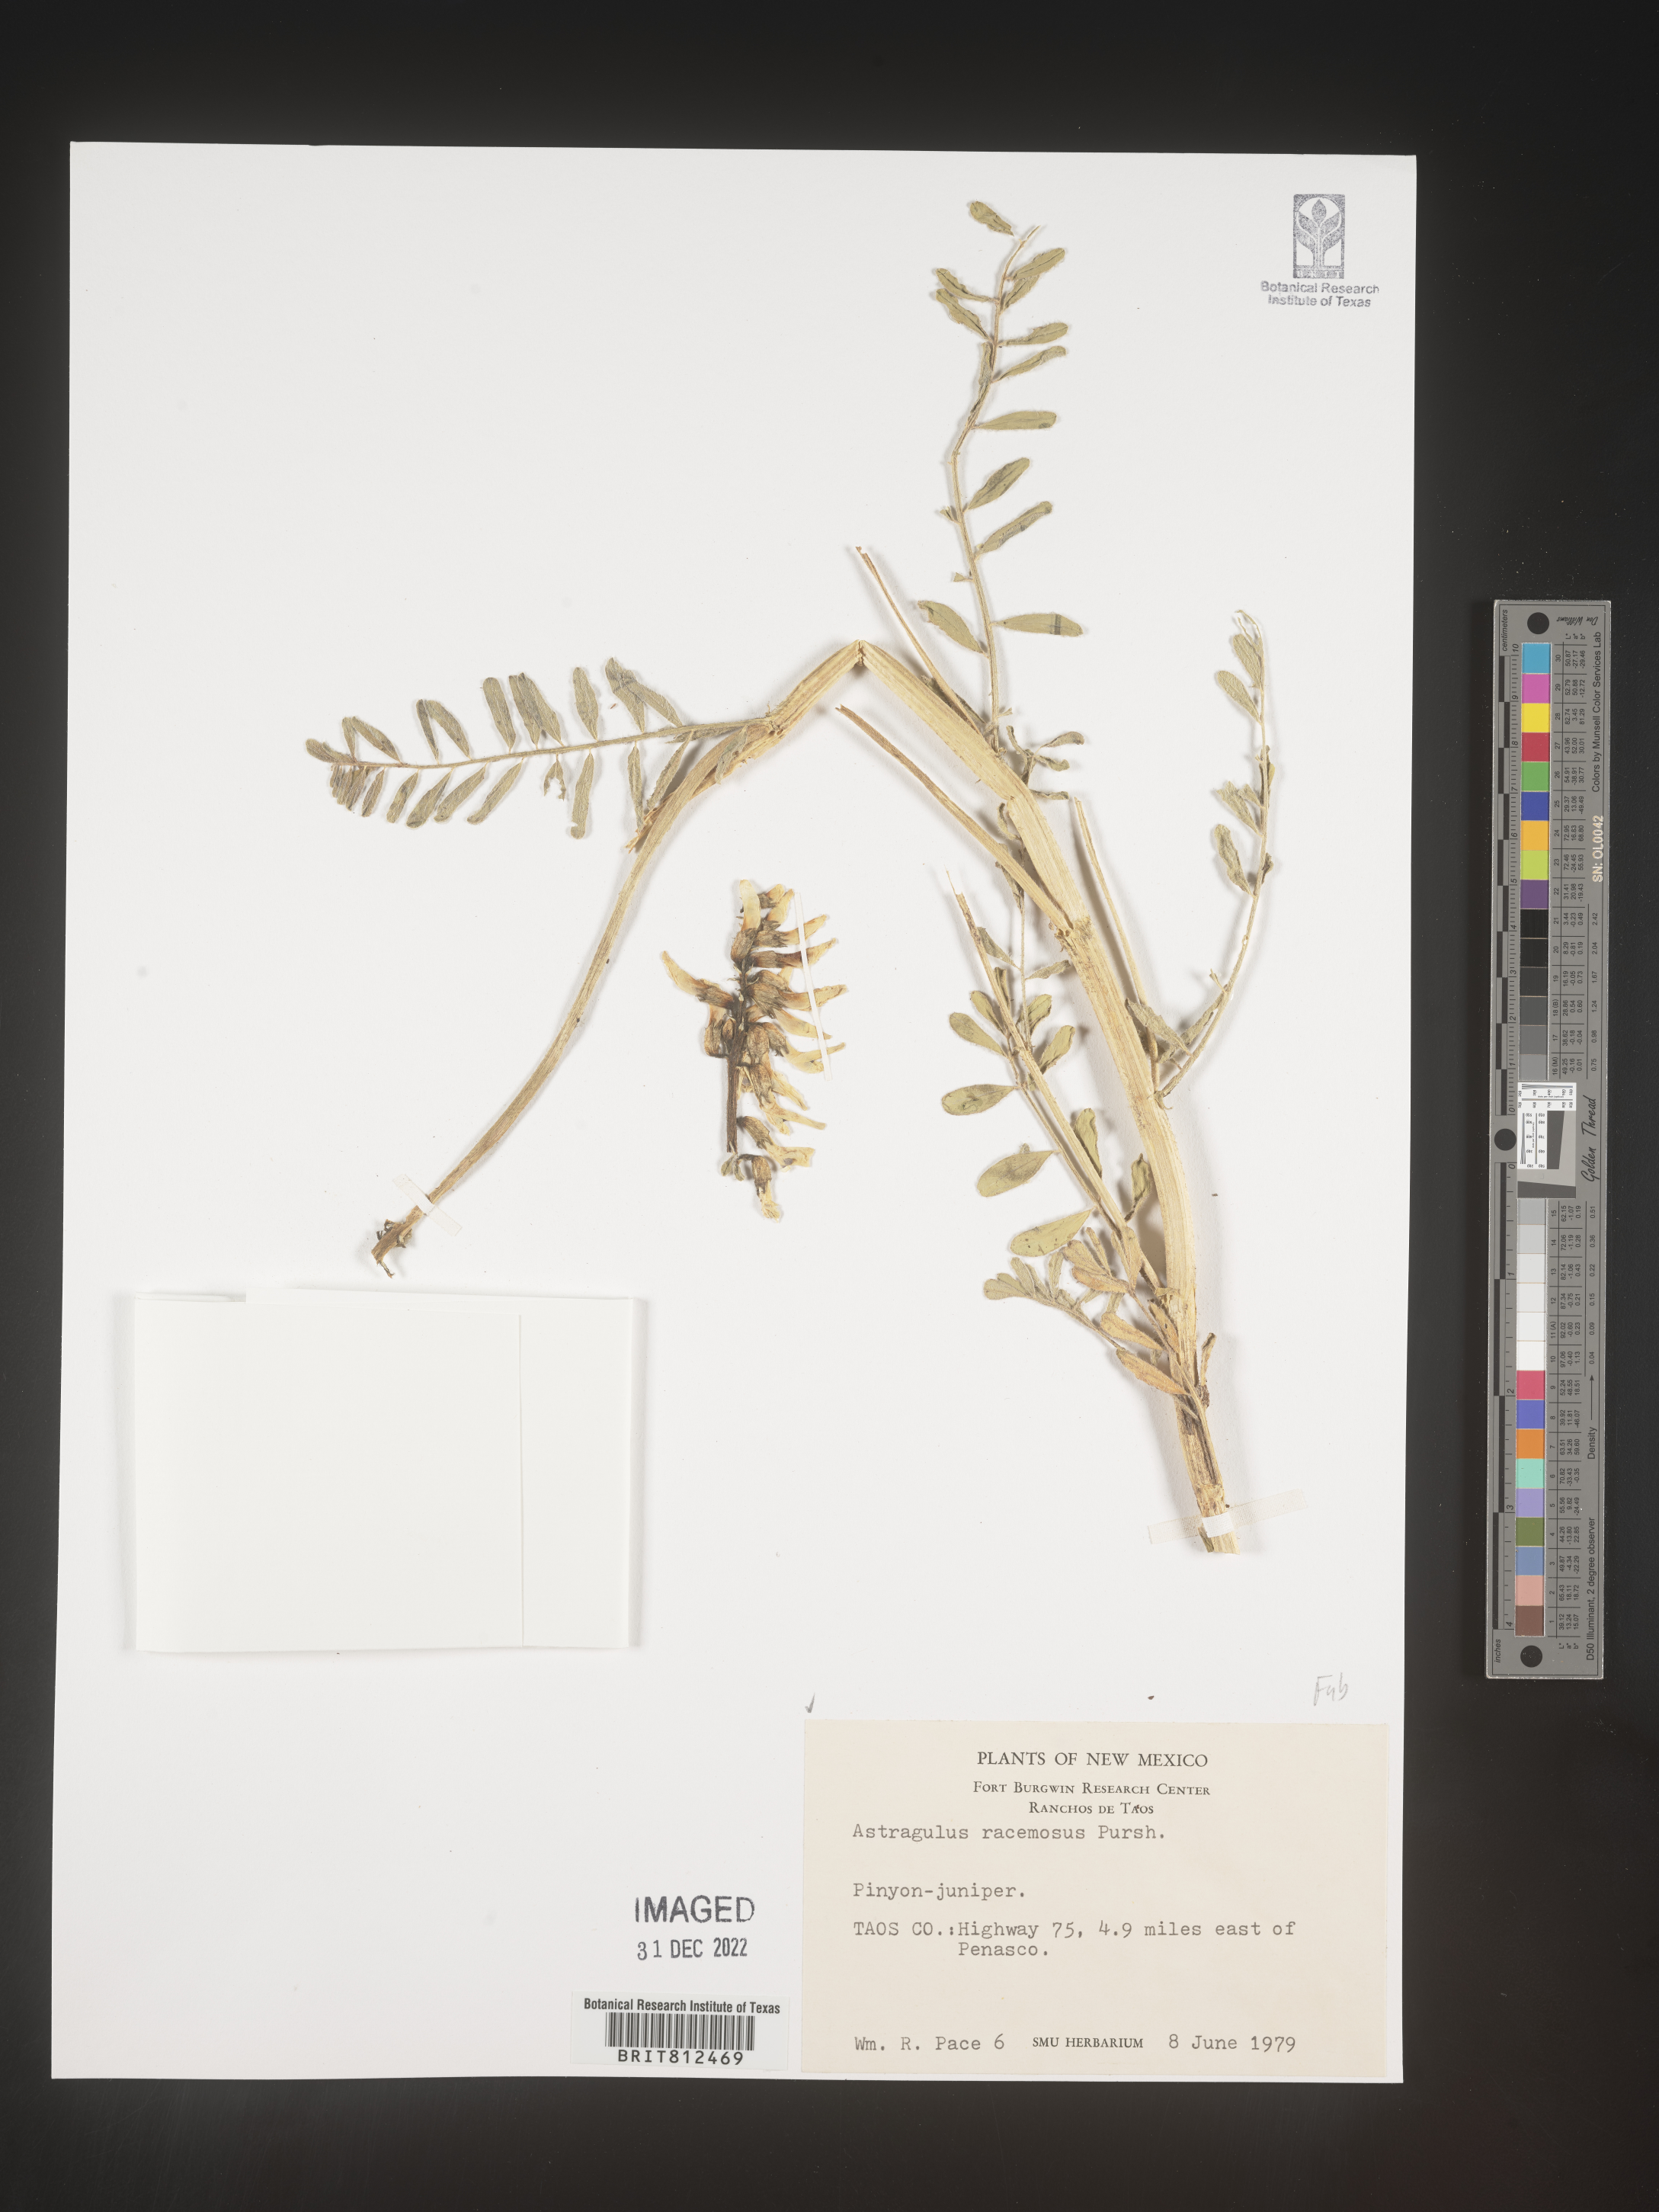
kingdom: Plantae
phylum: Tracheophyta
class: Magnoliopsida
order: Fabales
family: Fabaceae
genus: Astragalus
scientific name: Astragalus racemosus
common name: Alkali milk-vetch
